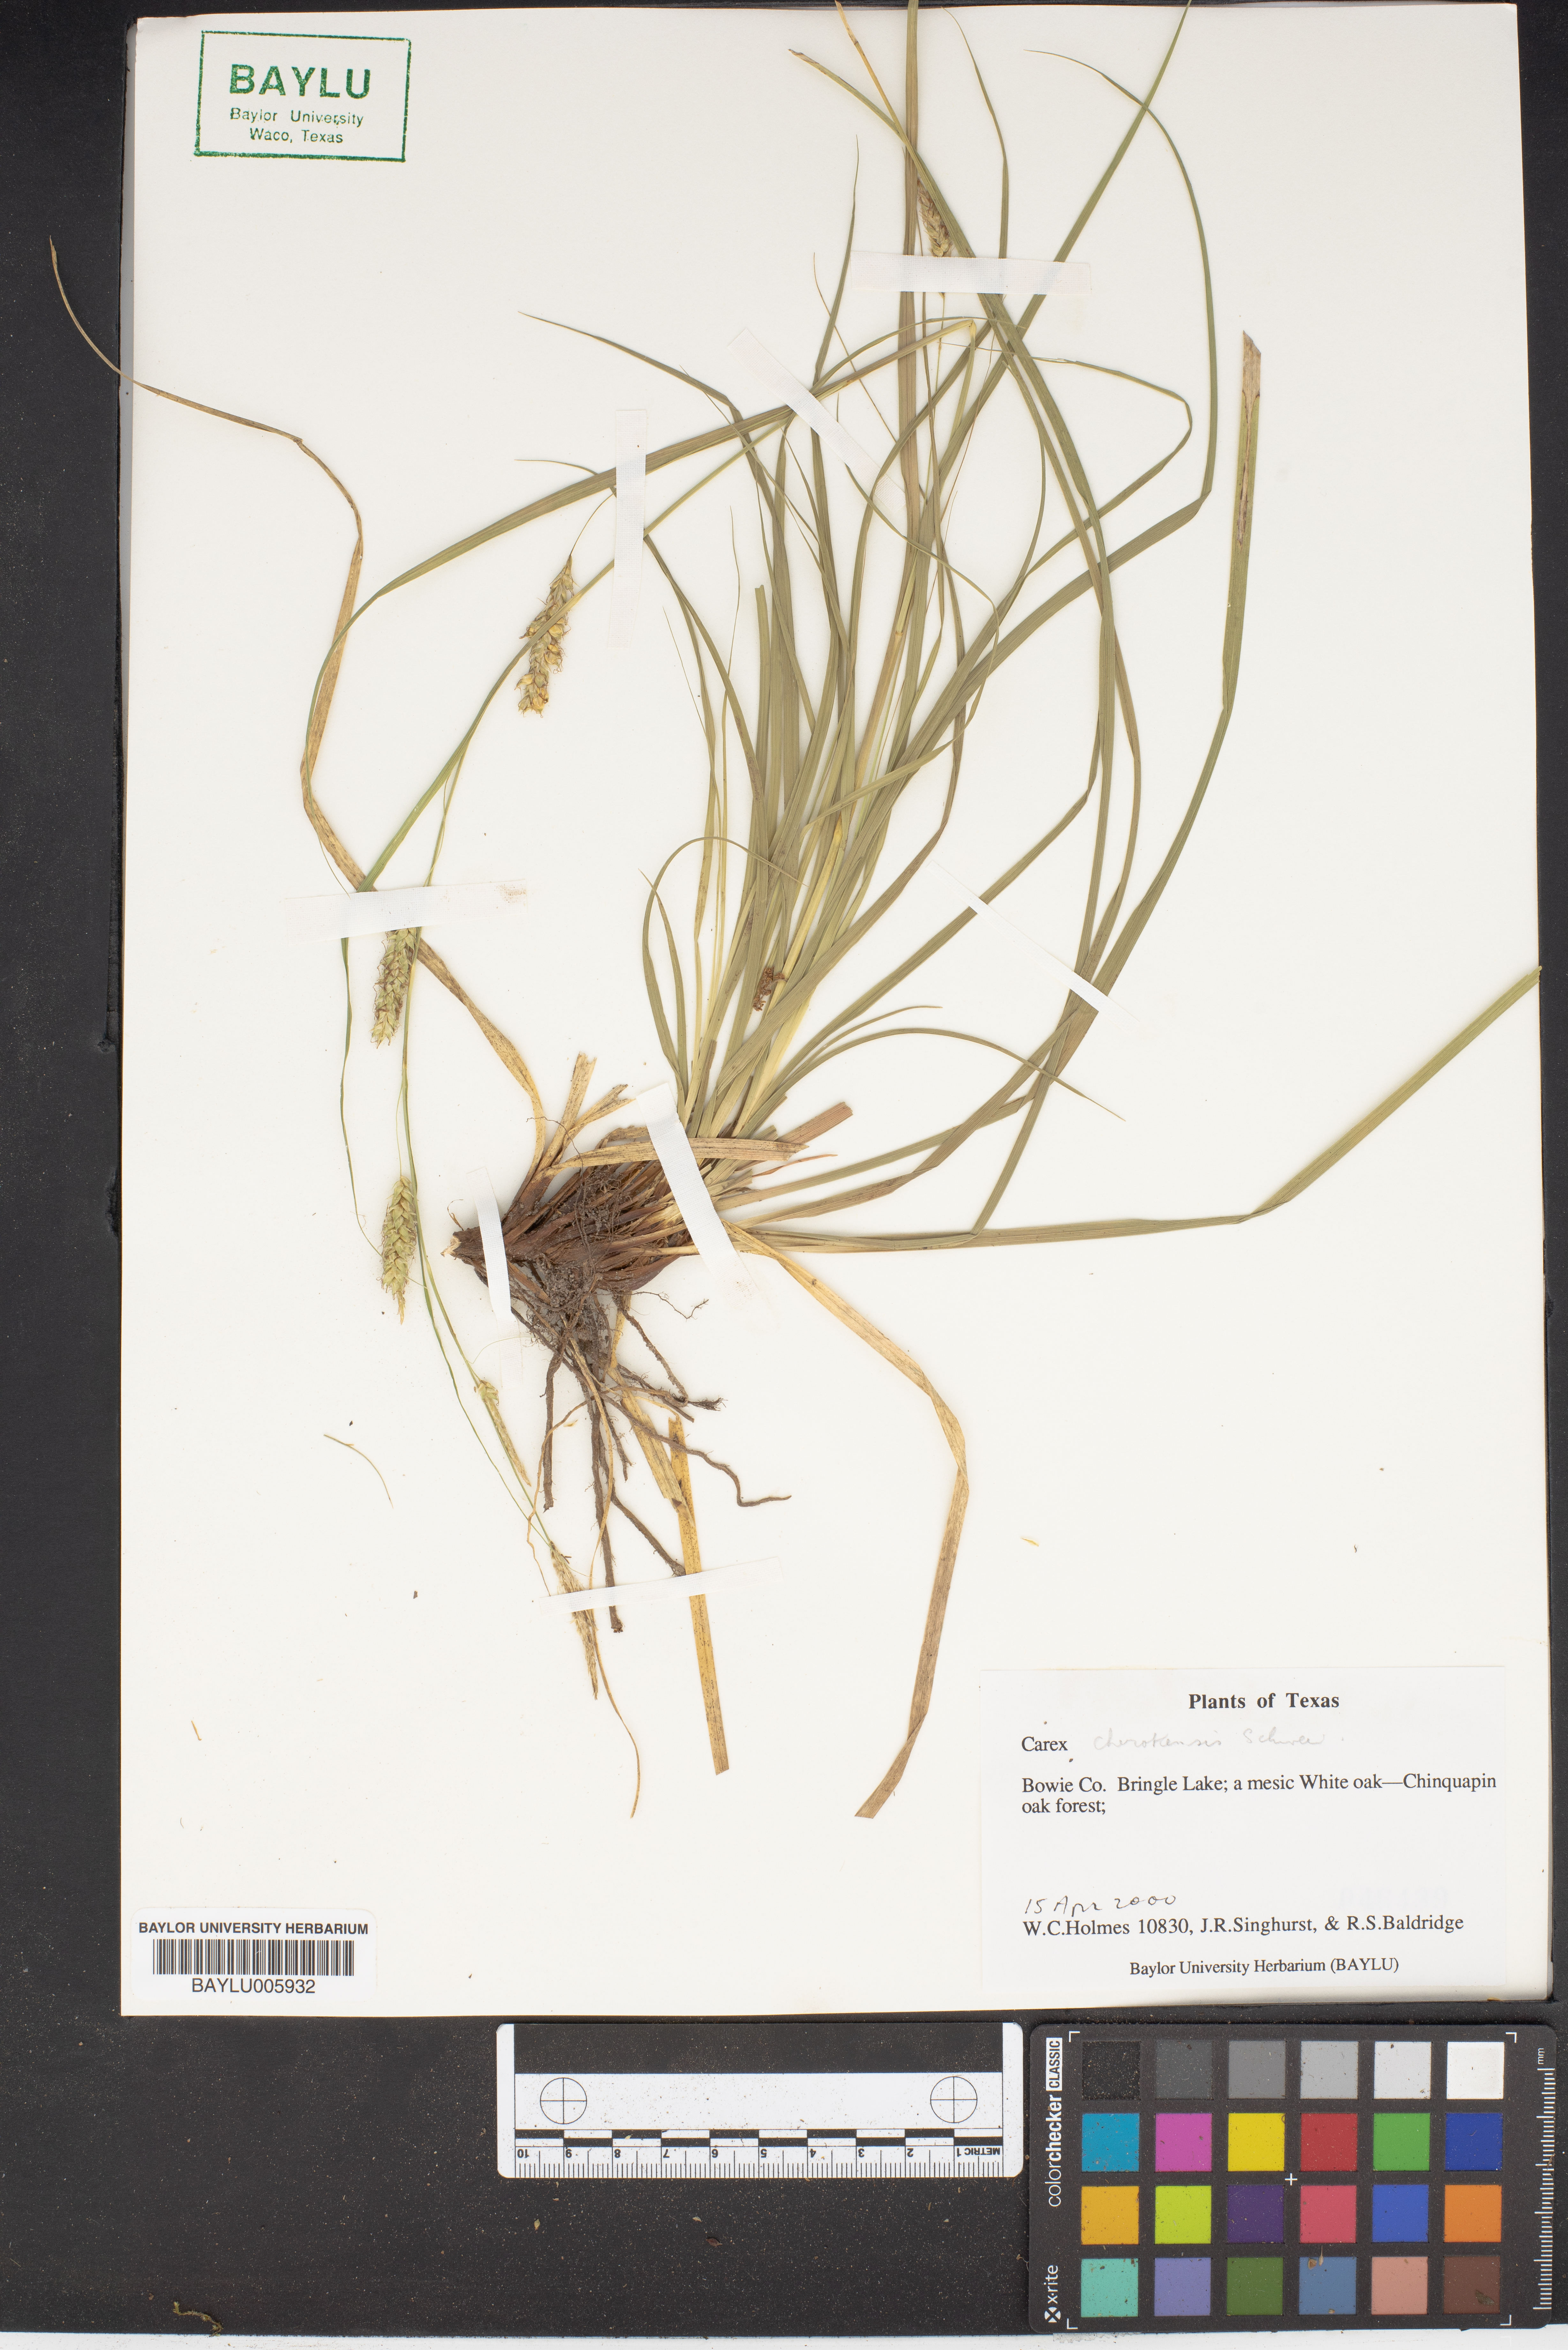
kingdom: Plantae
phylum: Tracheophyta
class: Liliopsida
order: Poales
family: Cyperaceae
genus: Carex
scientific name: Carex cherokeensis
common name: Cherokee sedge
